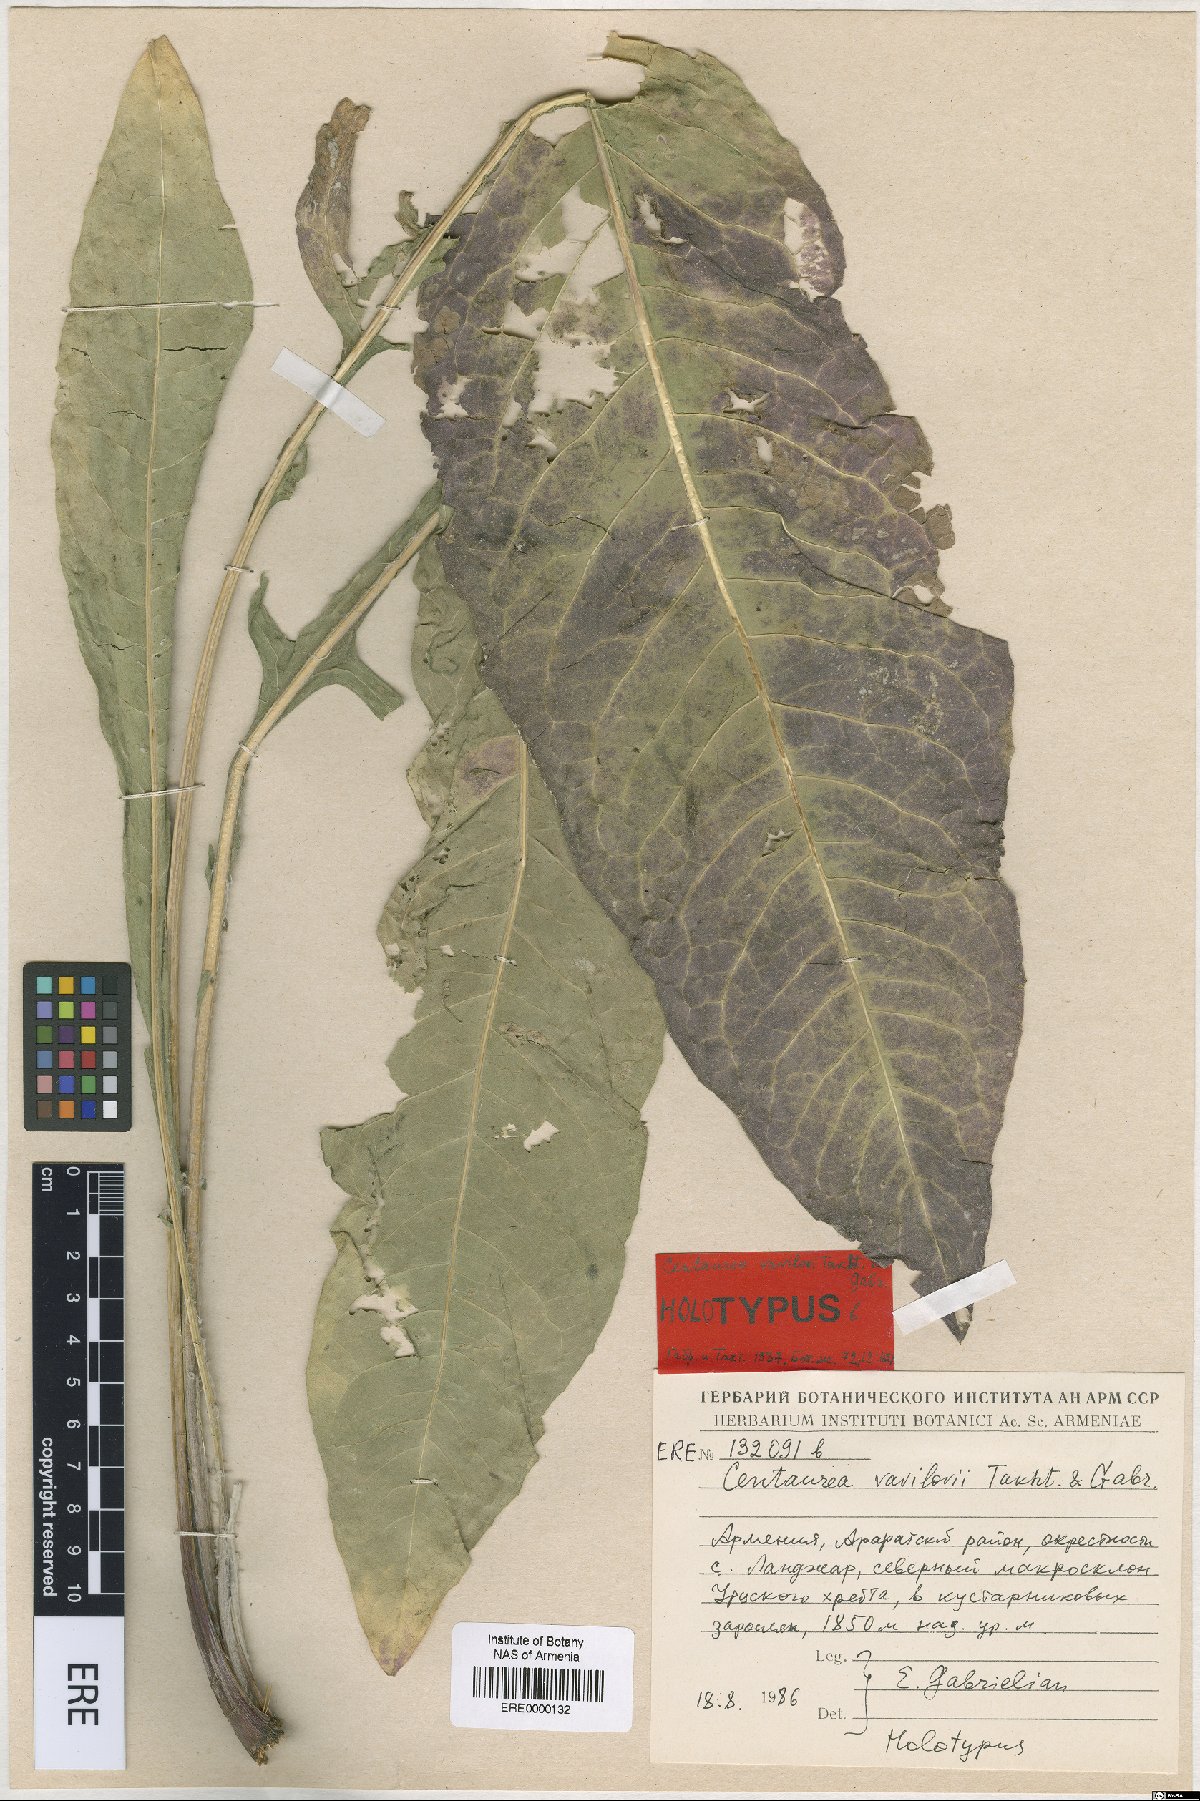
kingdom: Plantae
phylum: Tracheophyta
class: Magnoliopsida
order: Asterales
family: Asteraceae
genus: Centaurea
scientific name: Centaurea vavilovii
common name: Vavilov's centaury
